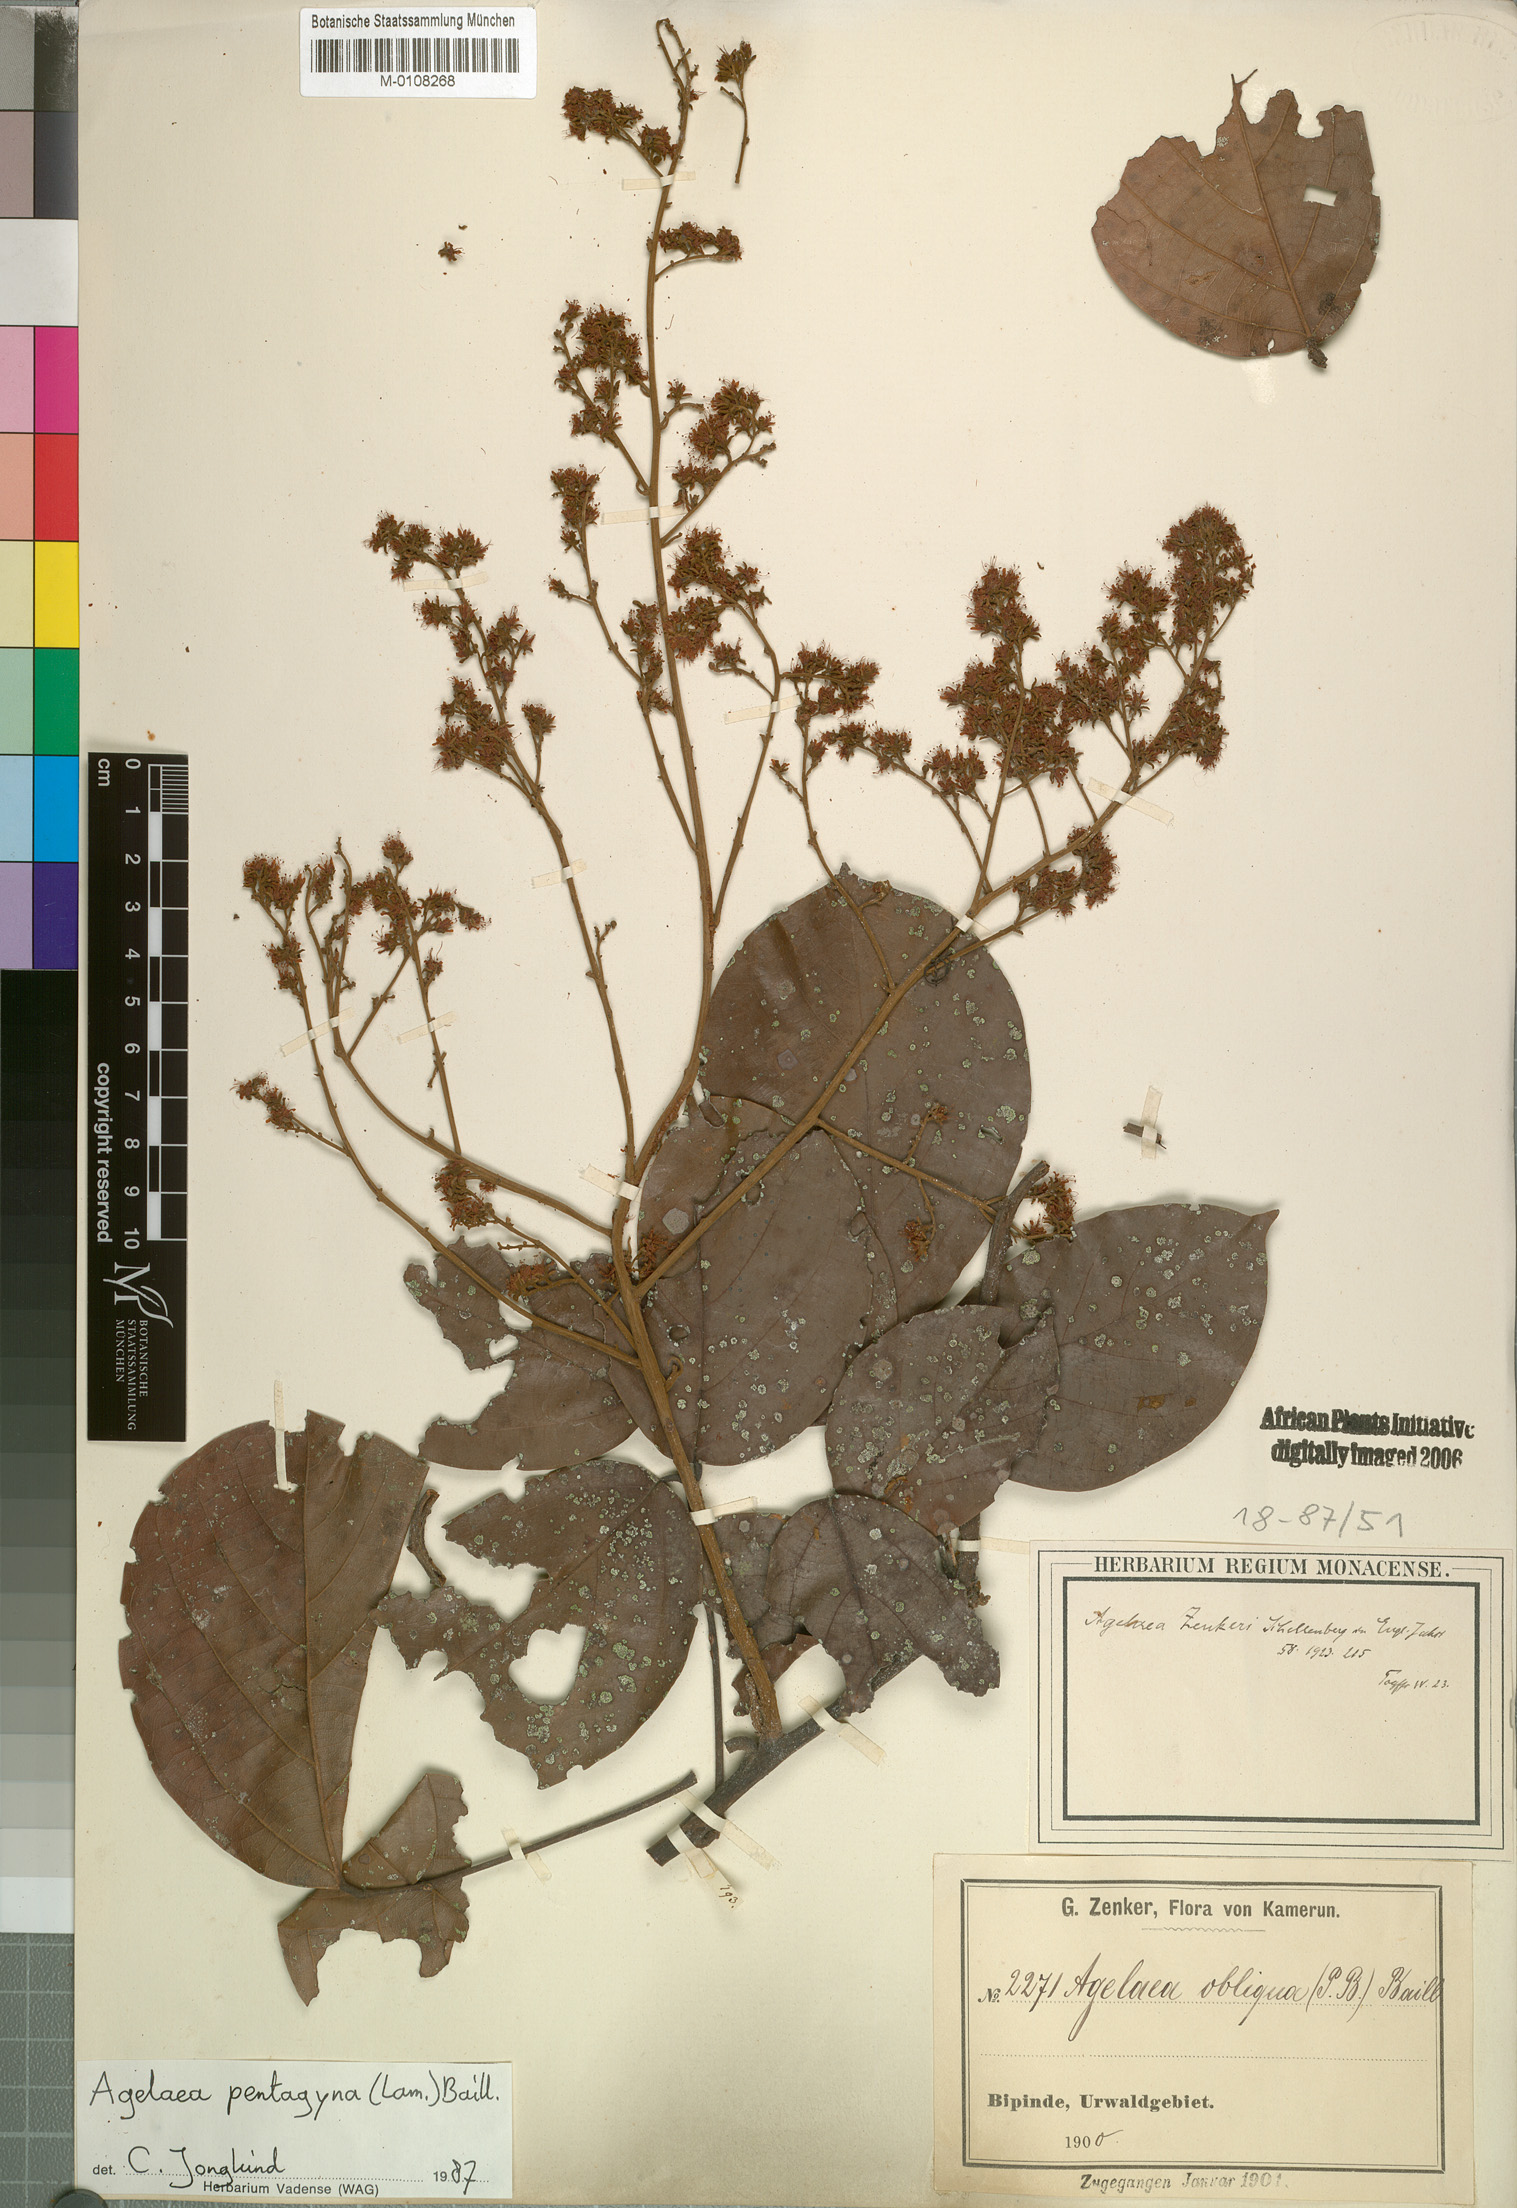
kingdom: Plantae
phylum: Tracheophyta
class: Magnoliopsida
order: Oxalidales
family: Connaraceae
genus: Agelaea
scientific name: Agelaea pentagyna
